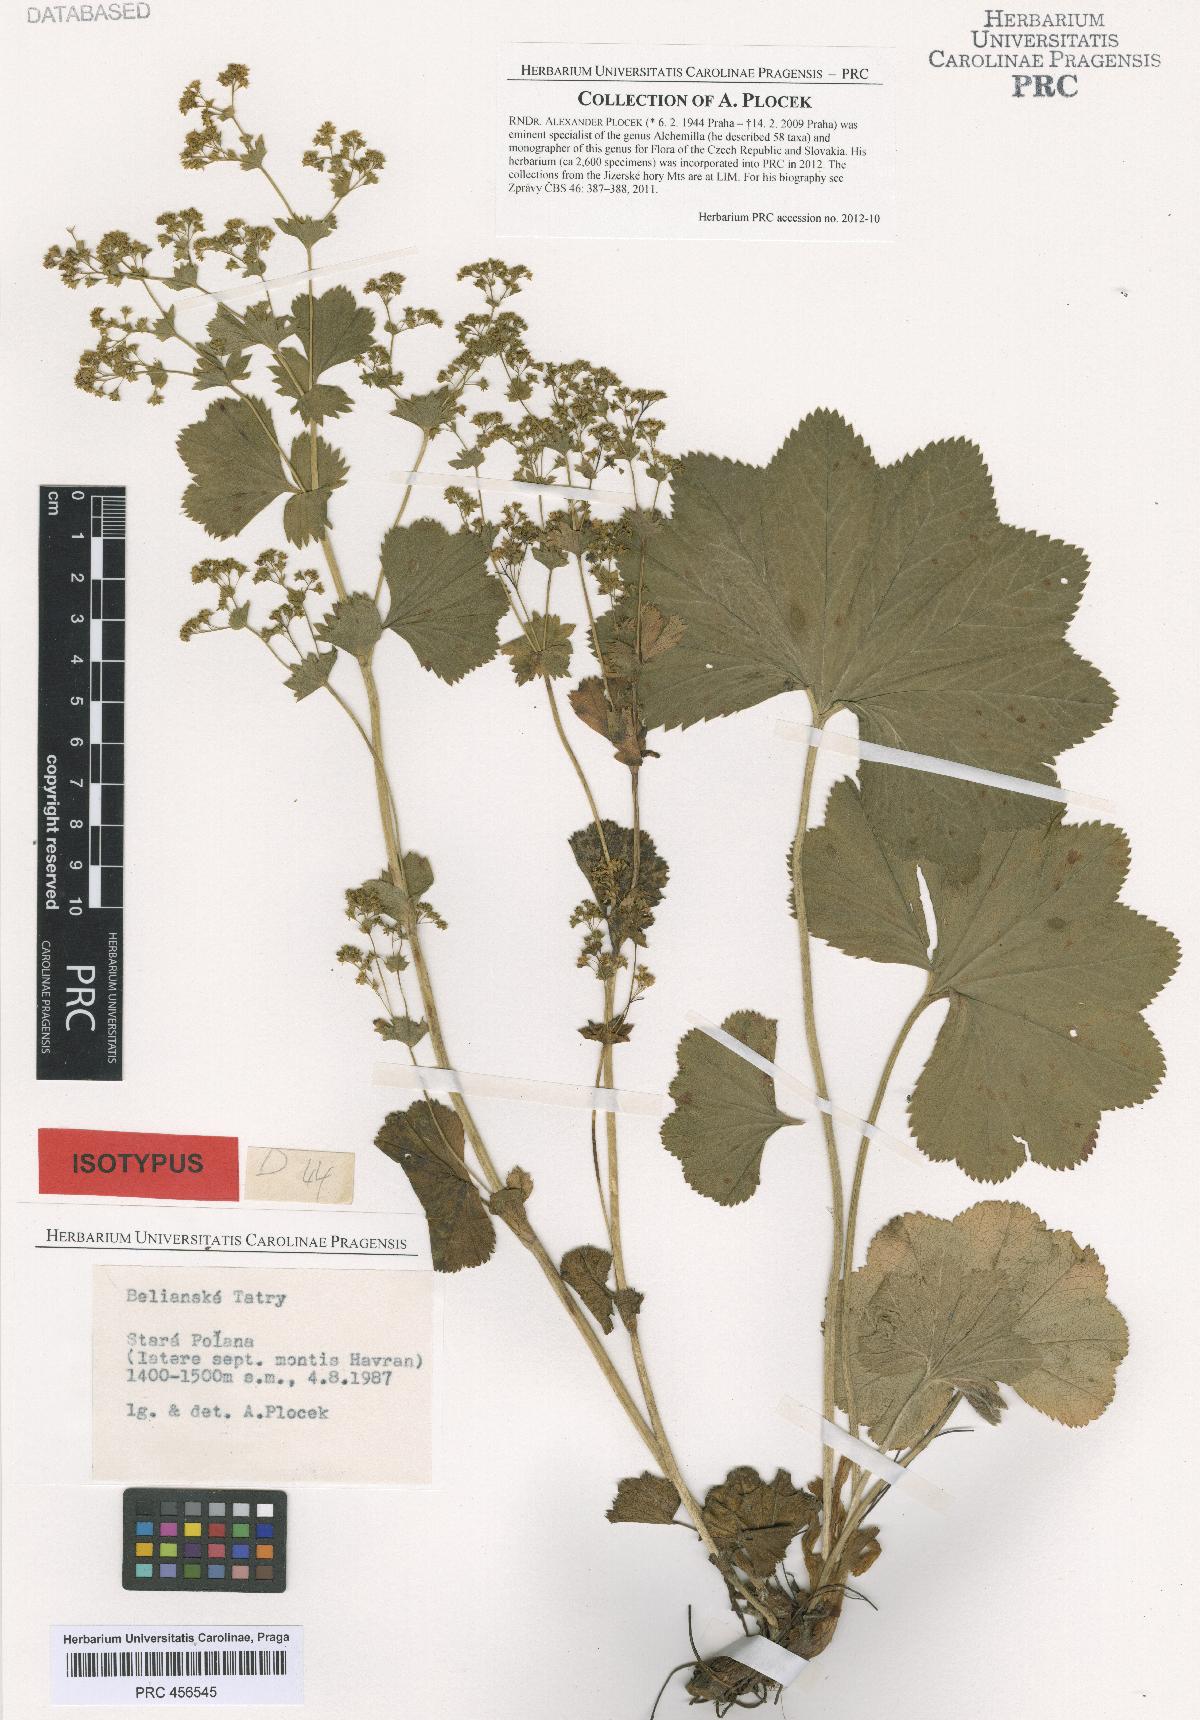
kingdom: Plantae
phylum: Tracheophyta
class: Magnoliopsida
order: Rosales
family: Rosaceae
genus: Alchemilla
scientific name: Alchemilla amauroptera
